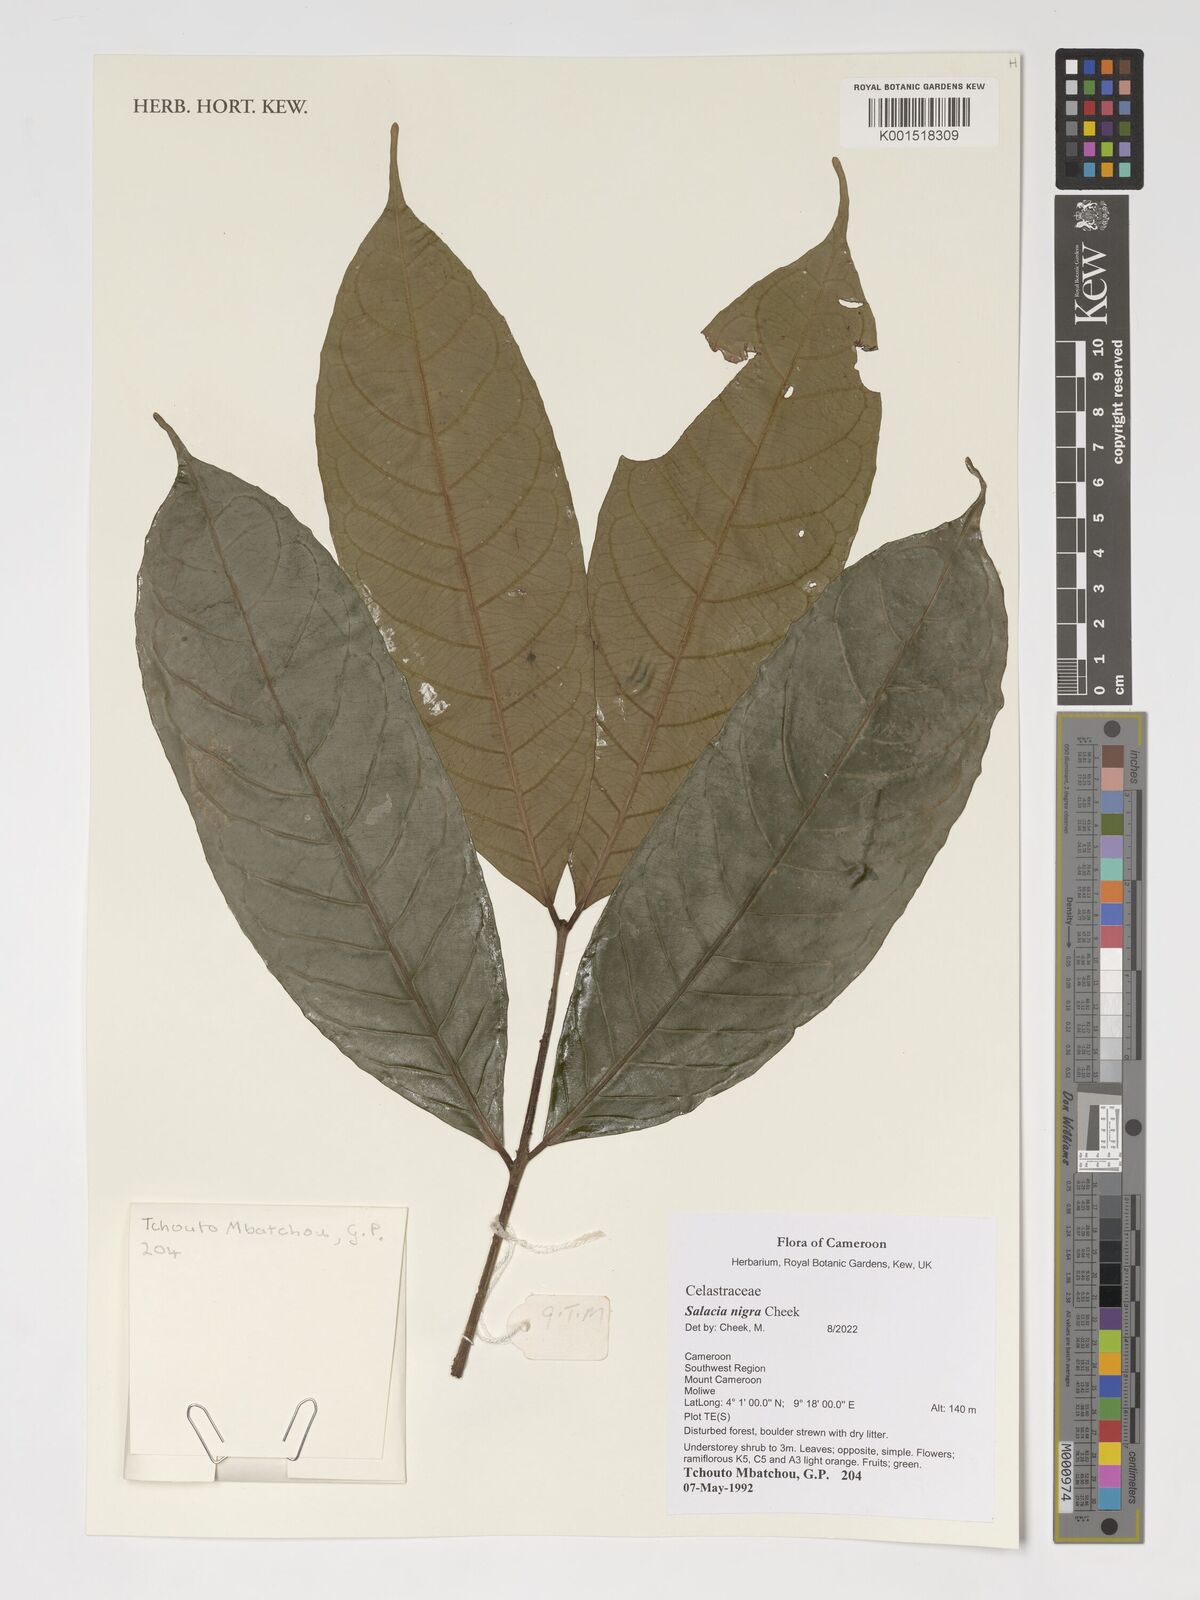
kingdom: Plantae
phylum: Tracheophyta
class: Magnoliopsida
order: Celastrales
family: Celastraceae
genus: Salacia
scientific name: Salacia nigra
